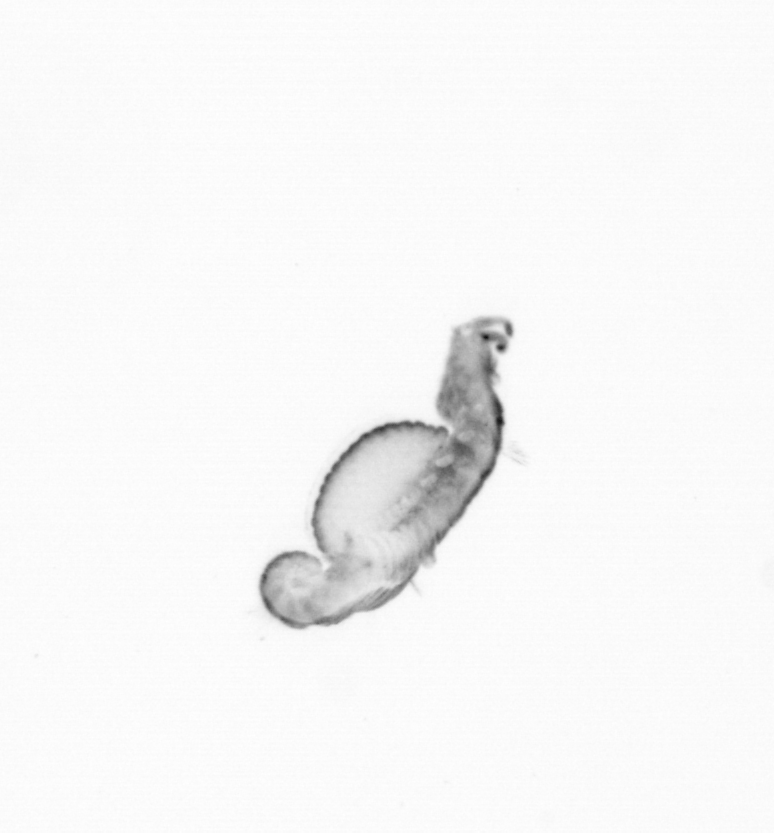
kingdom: Animalia
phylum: Annelida
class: Polychaeta
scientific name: Polychaeta
